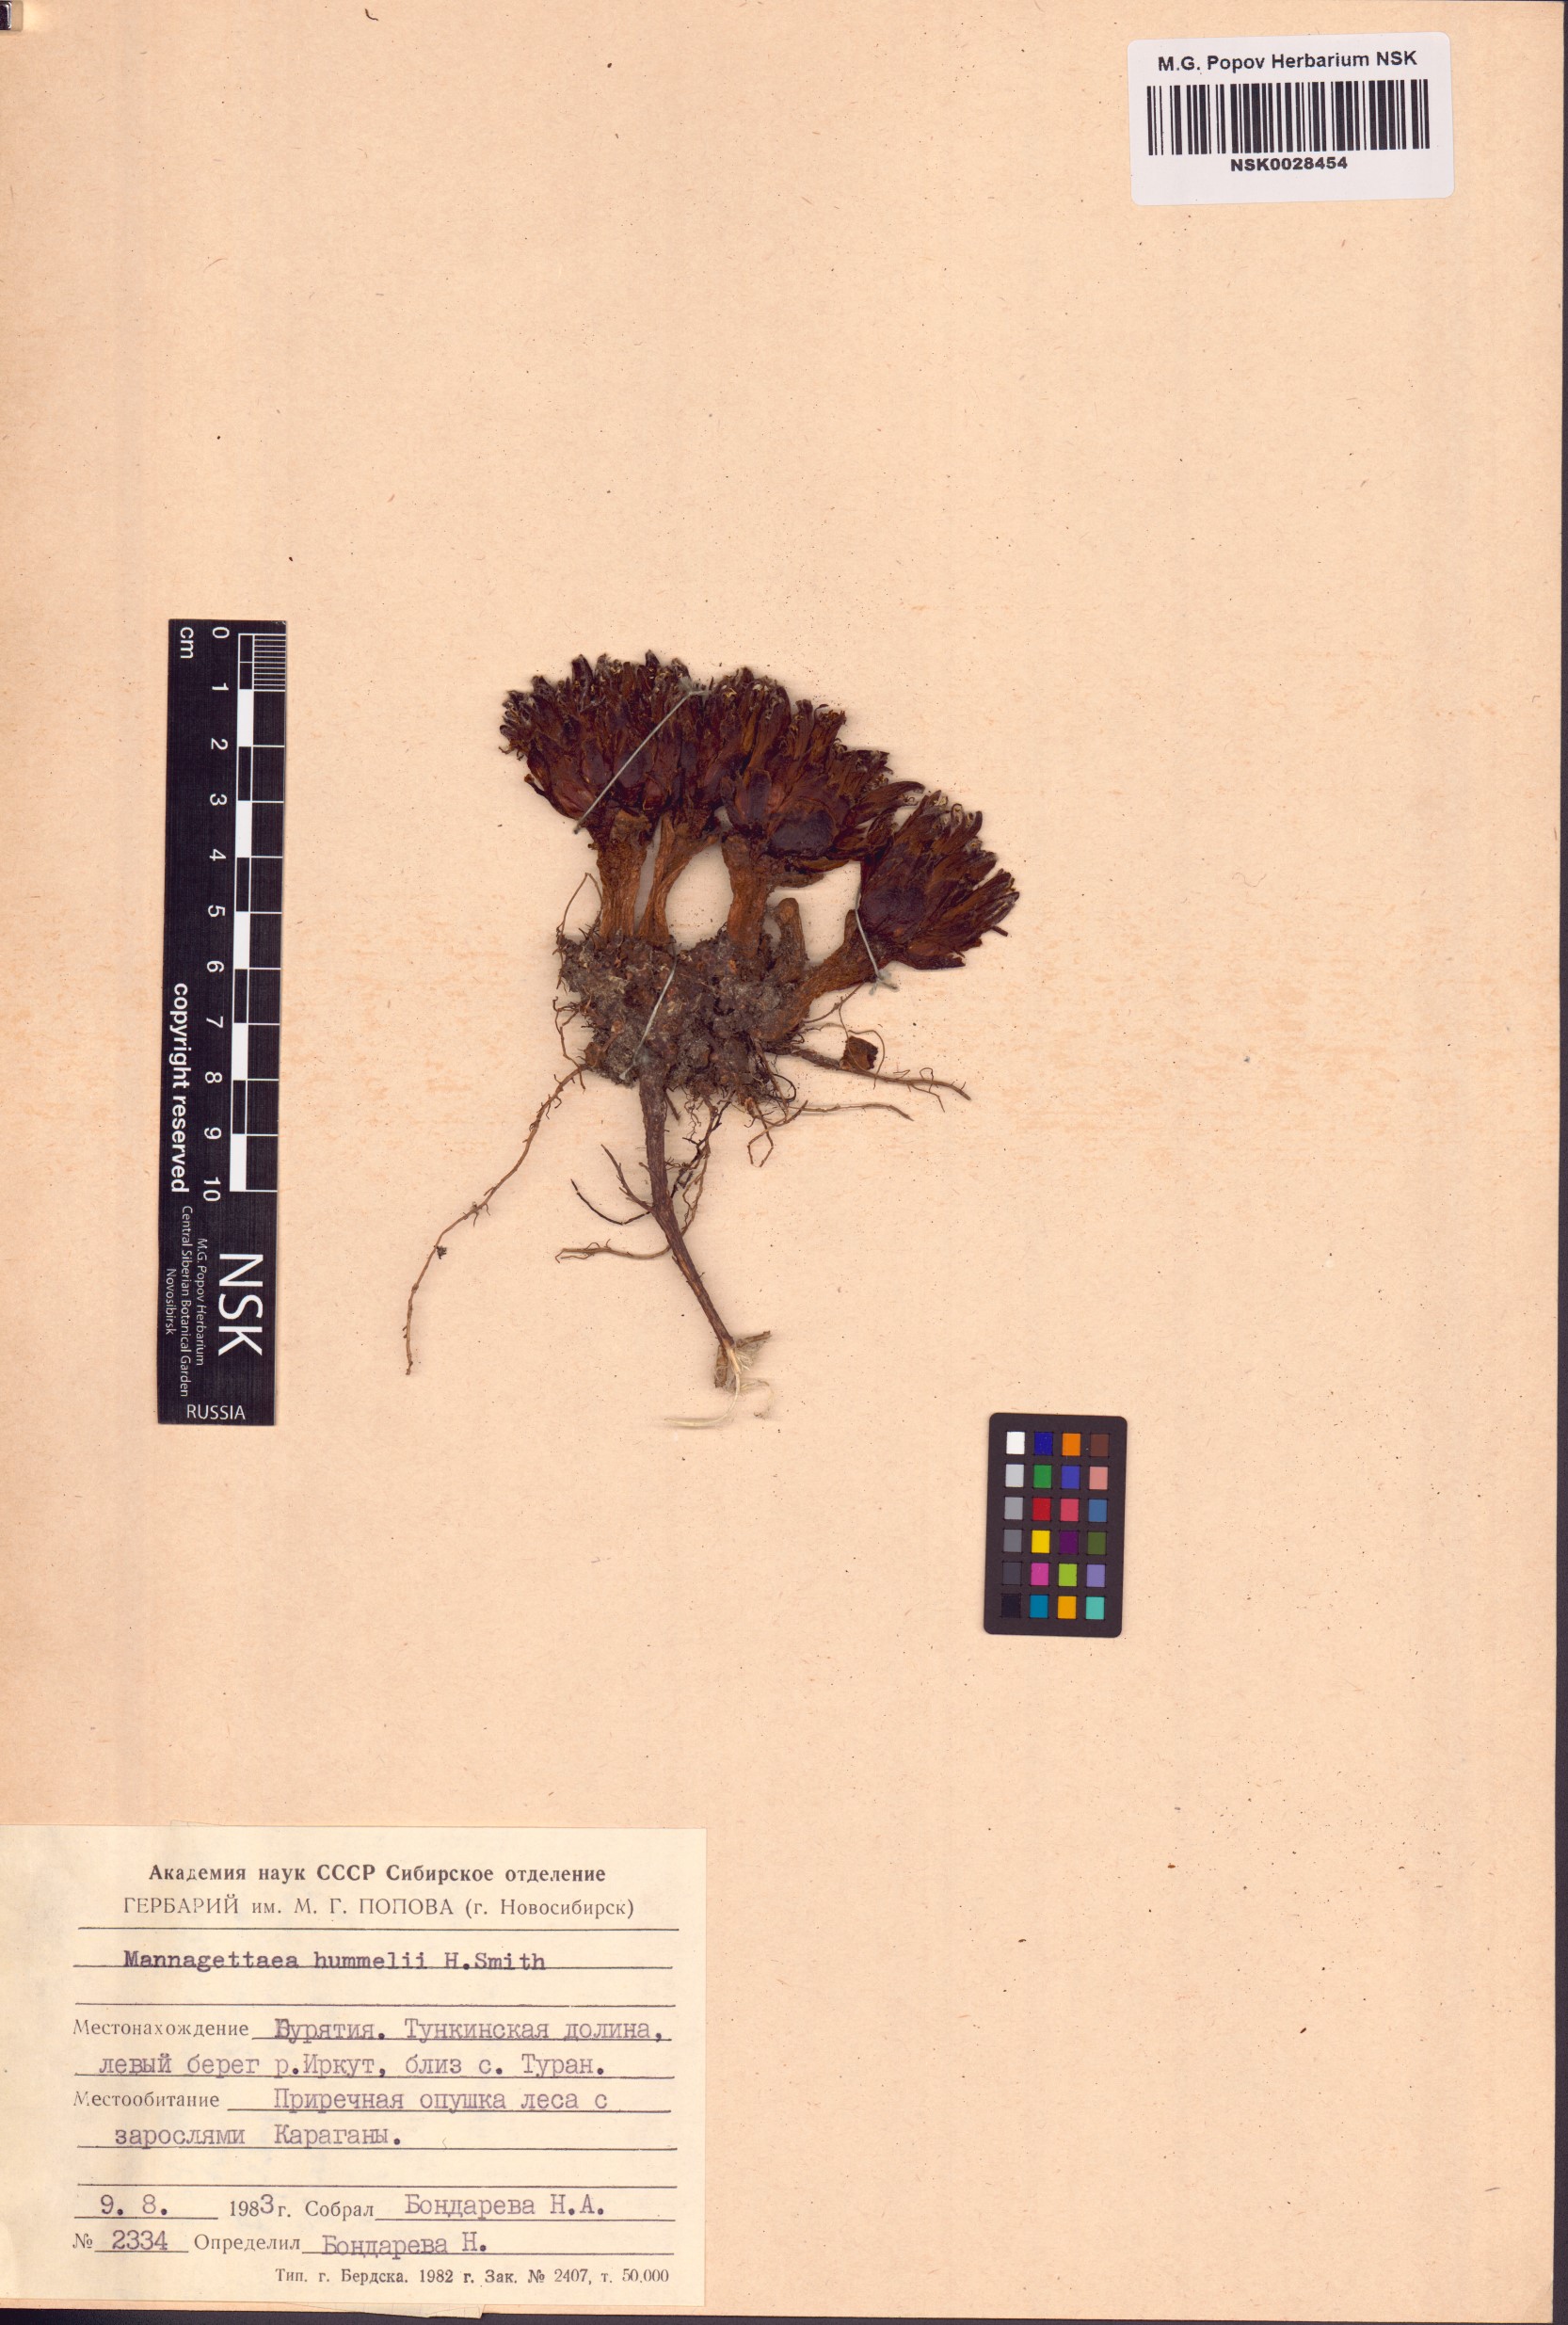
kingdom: Plantae
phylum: Tracheophyta
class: Magnoliopsida
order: Lamiales
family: Orobanchaceae
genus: Mannagettaea
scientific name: Mannagettaea hummelii
